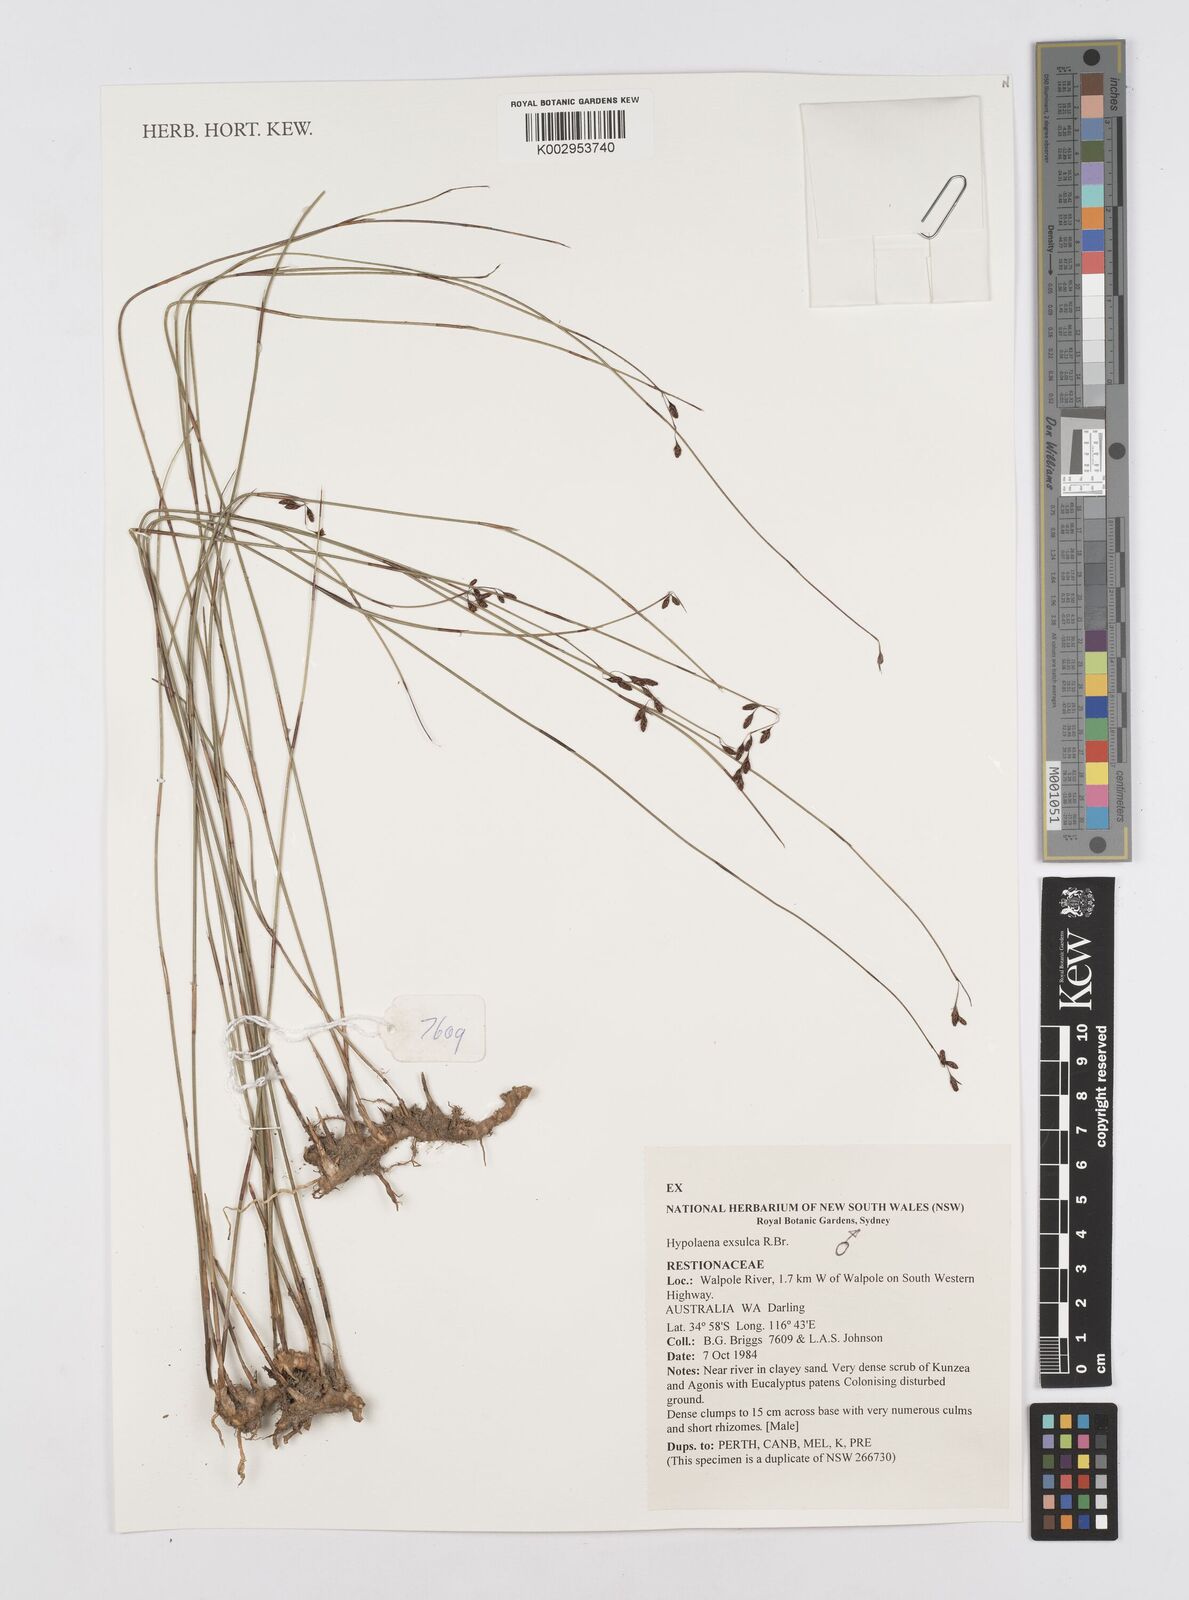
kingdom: Plantae
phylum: Tracheophyta
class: Liliopsida
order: Poales
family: Restionaceae
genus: Hypolaena
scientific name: Hypolaena exsulca
